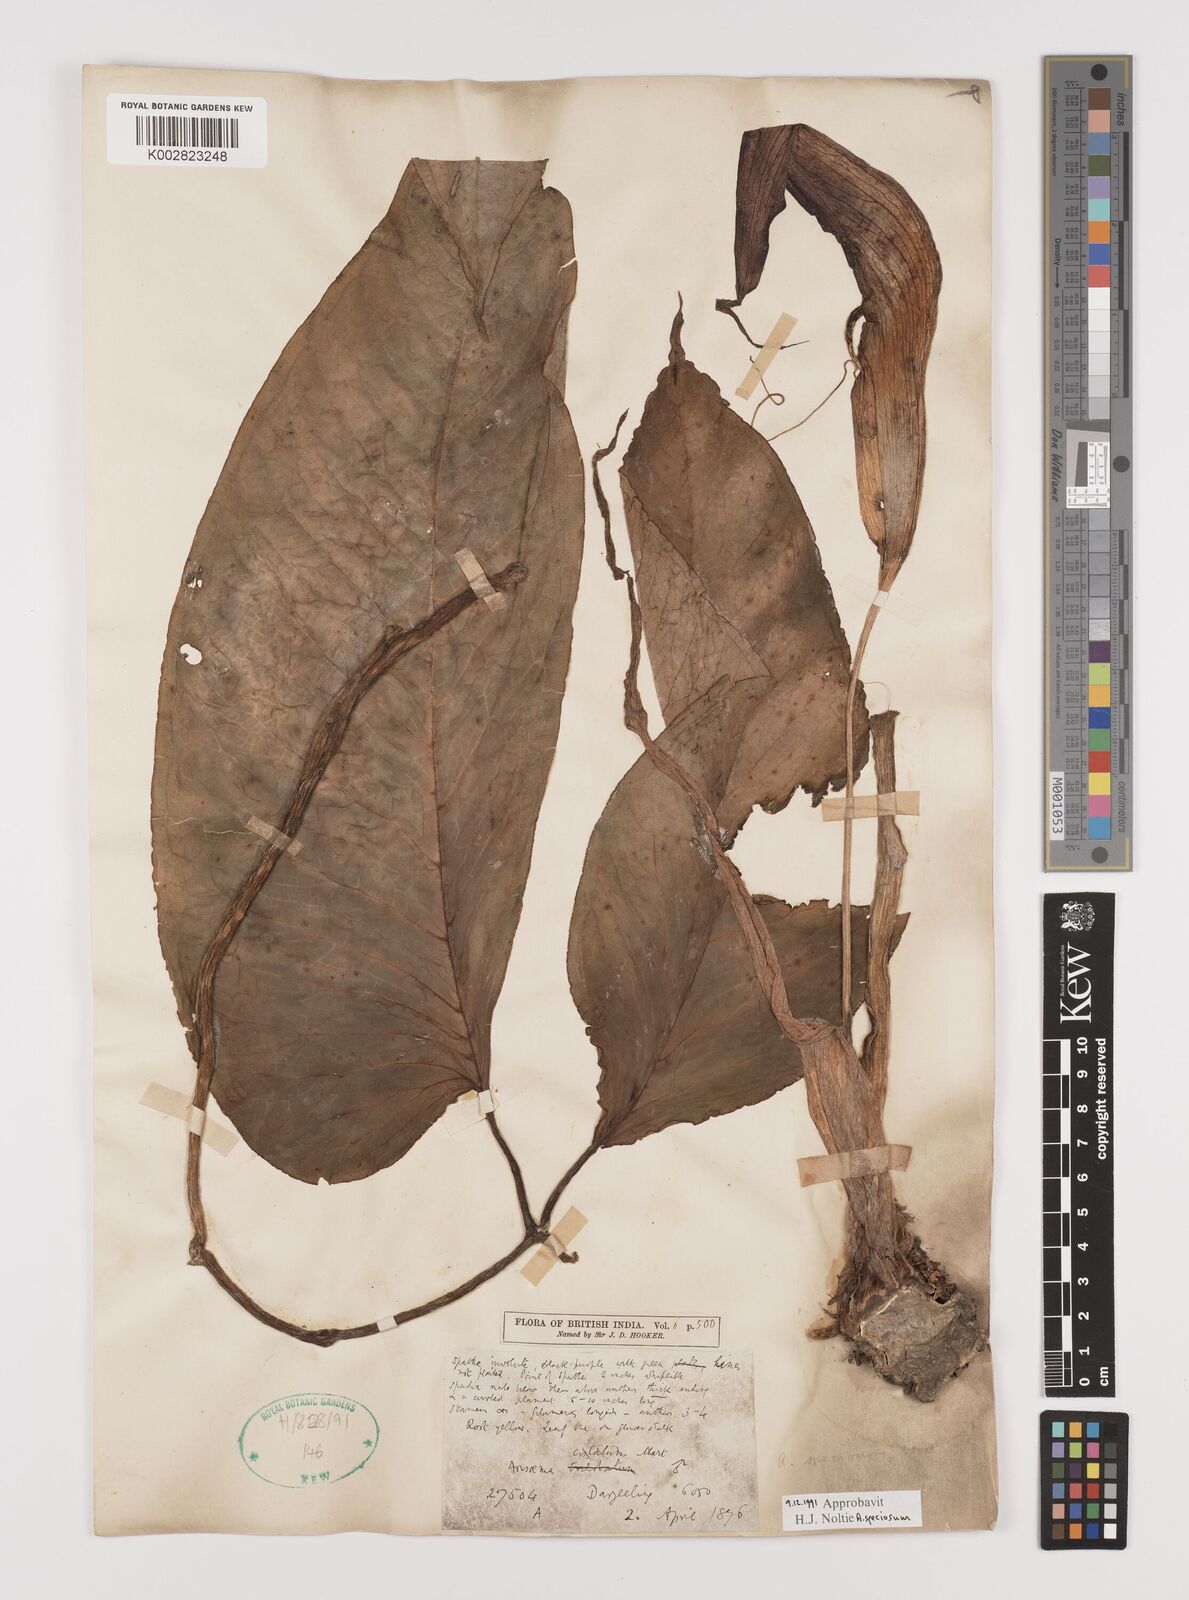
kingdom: Plantae
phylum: Tracheophyta
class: Liliopsida
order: Alismatales
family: Araceae
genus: Arisaema
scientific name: Arisaema speciosum
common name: Showy cobra-lily
